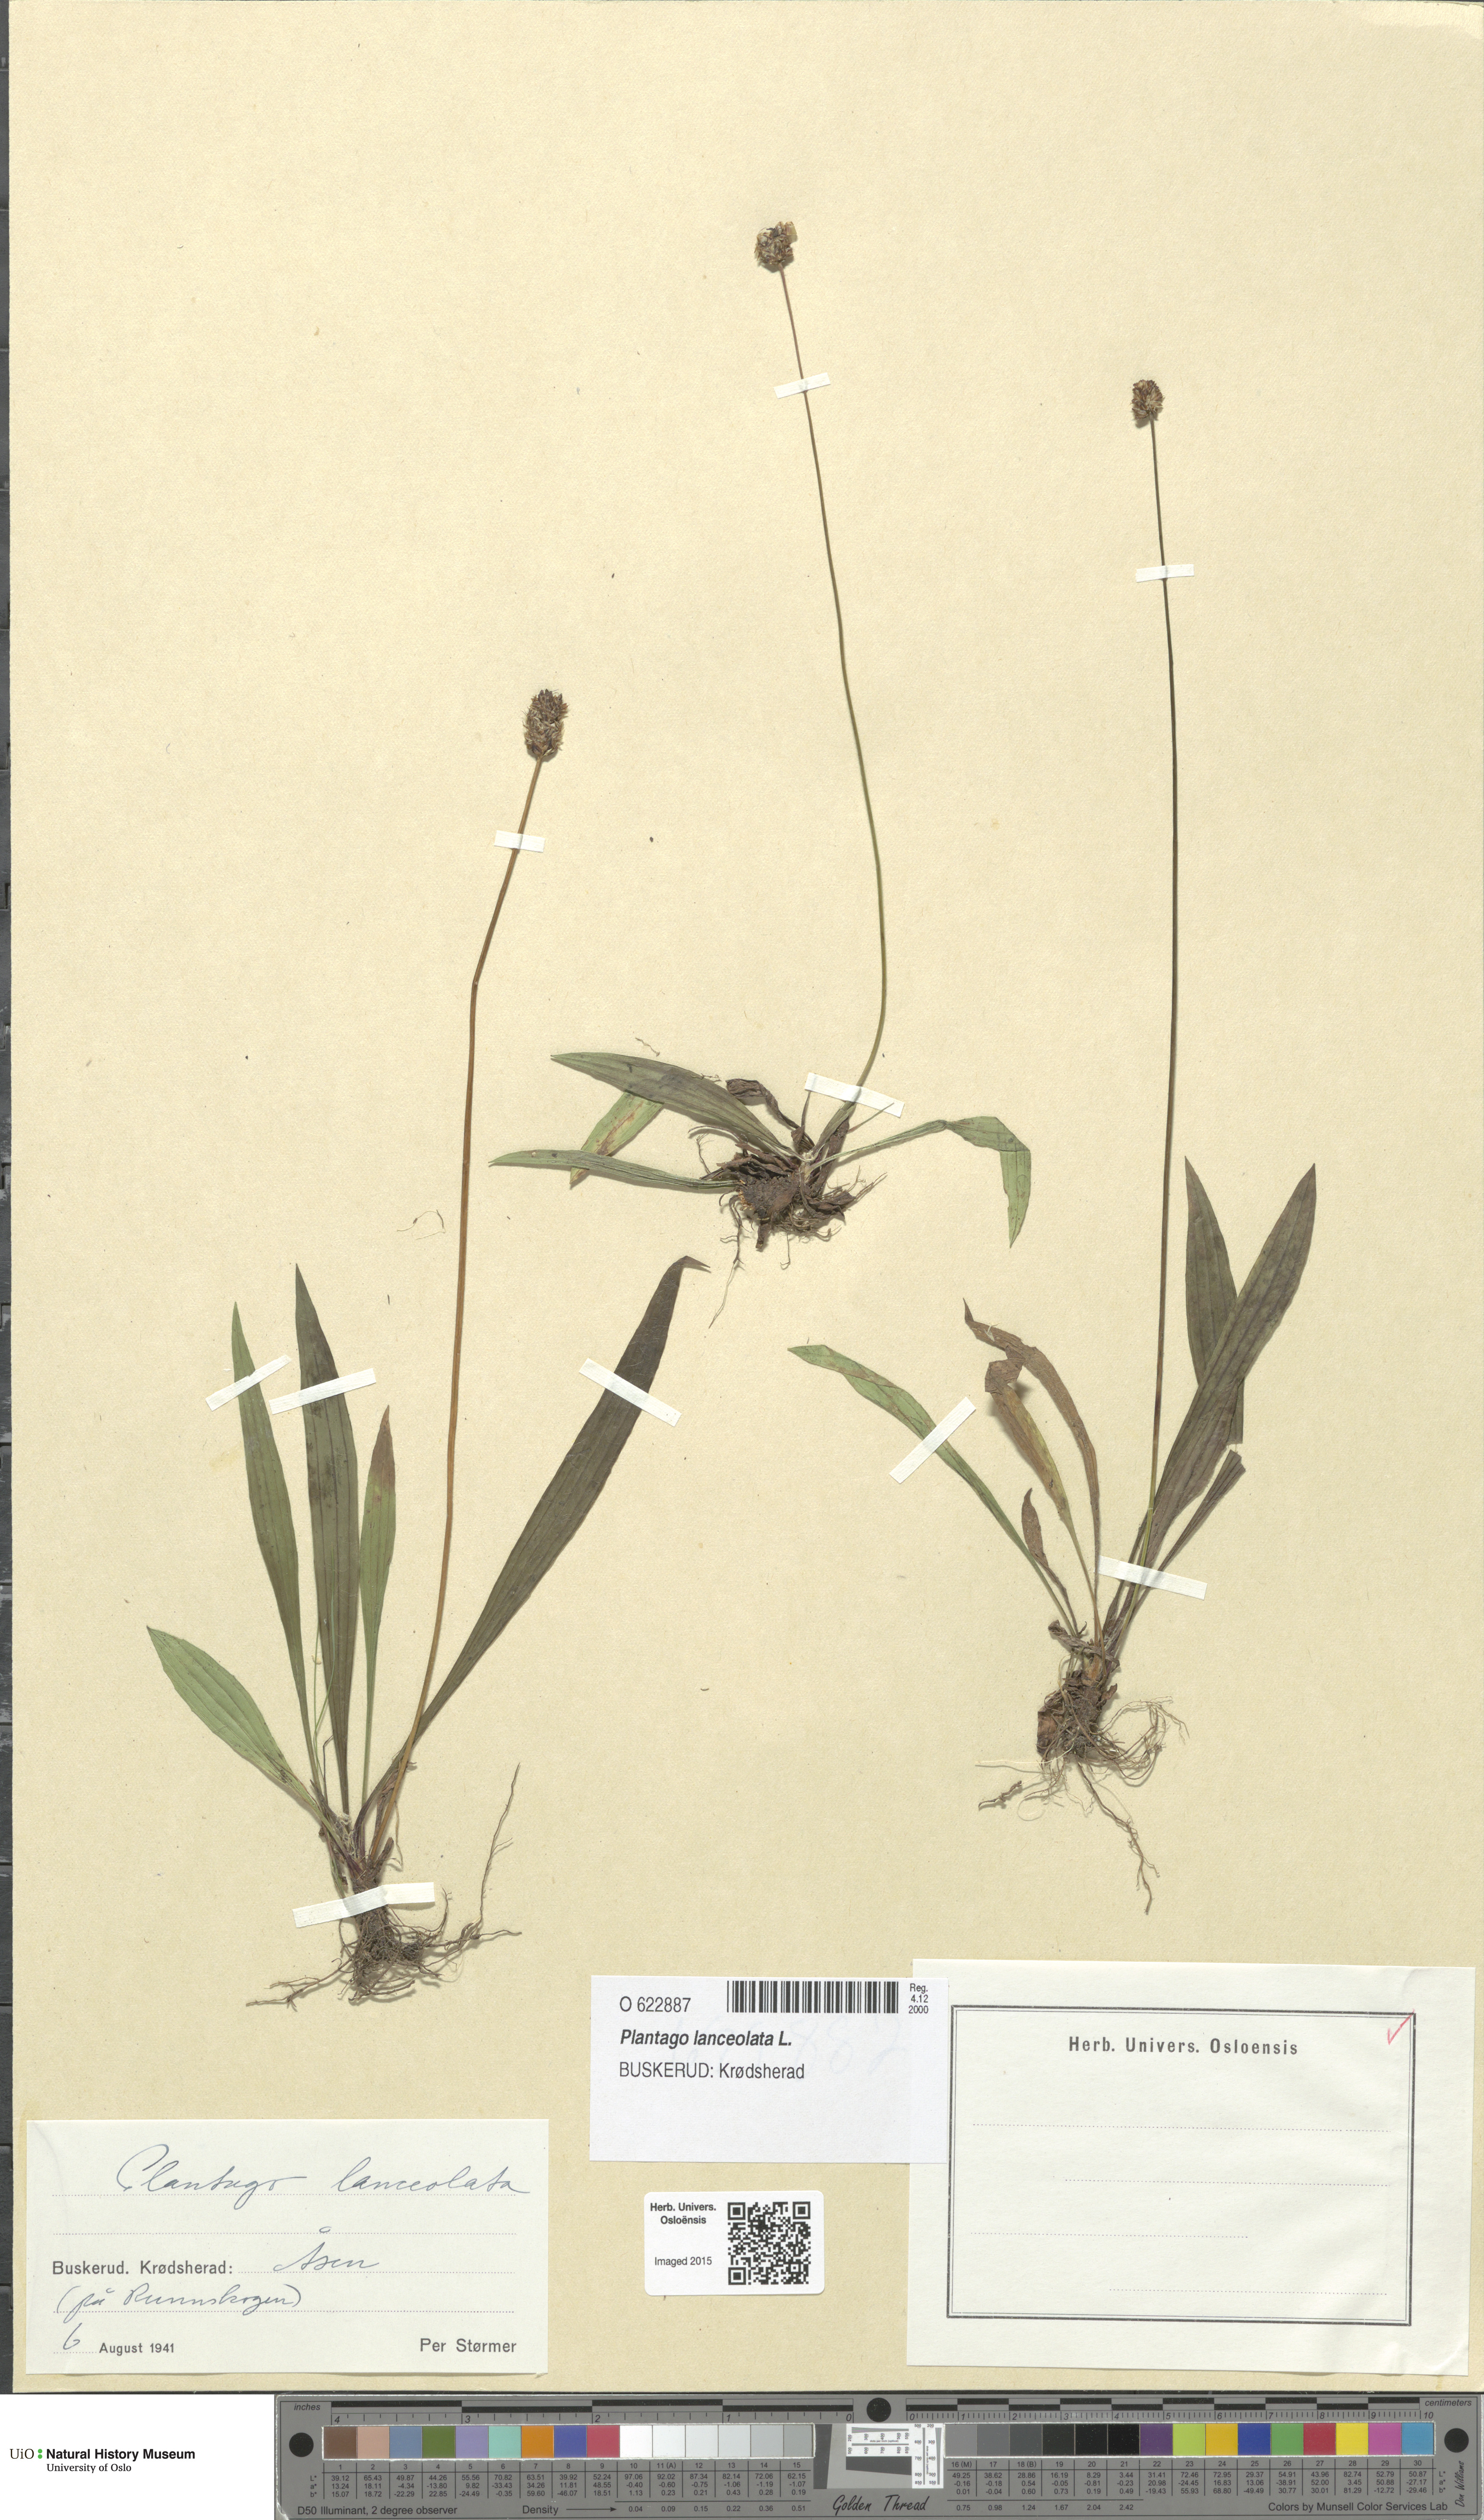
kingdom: Plantae
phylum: Tracheophyta
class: Magnoliopsida
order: Lamiales
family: Plantaginaceae
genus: Plantago
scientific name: Plantago lanceolata
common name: Ribwort plantain
